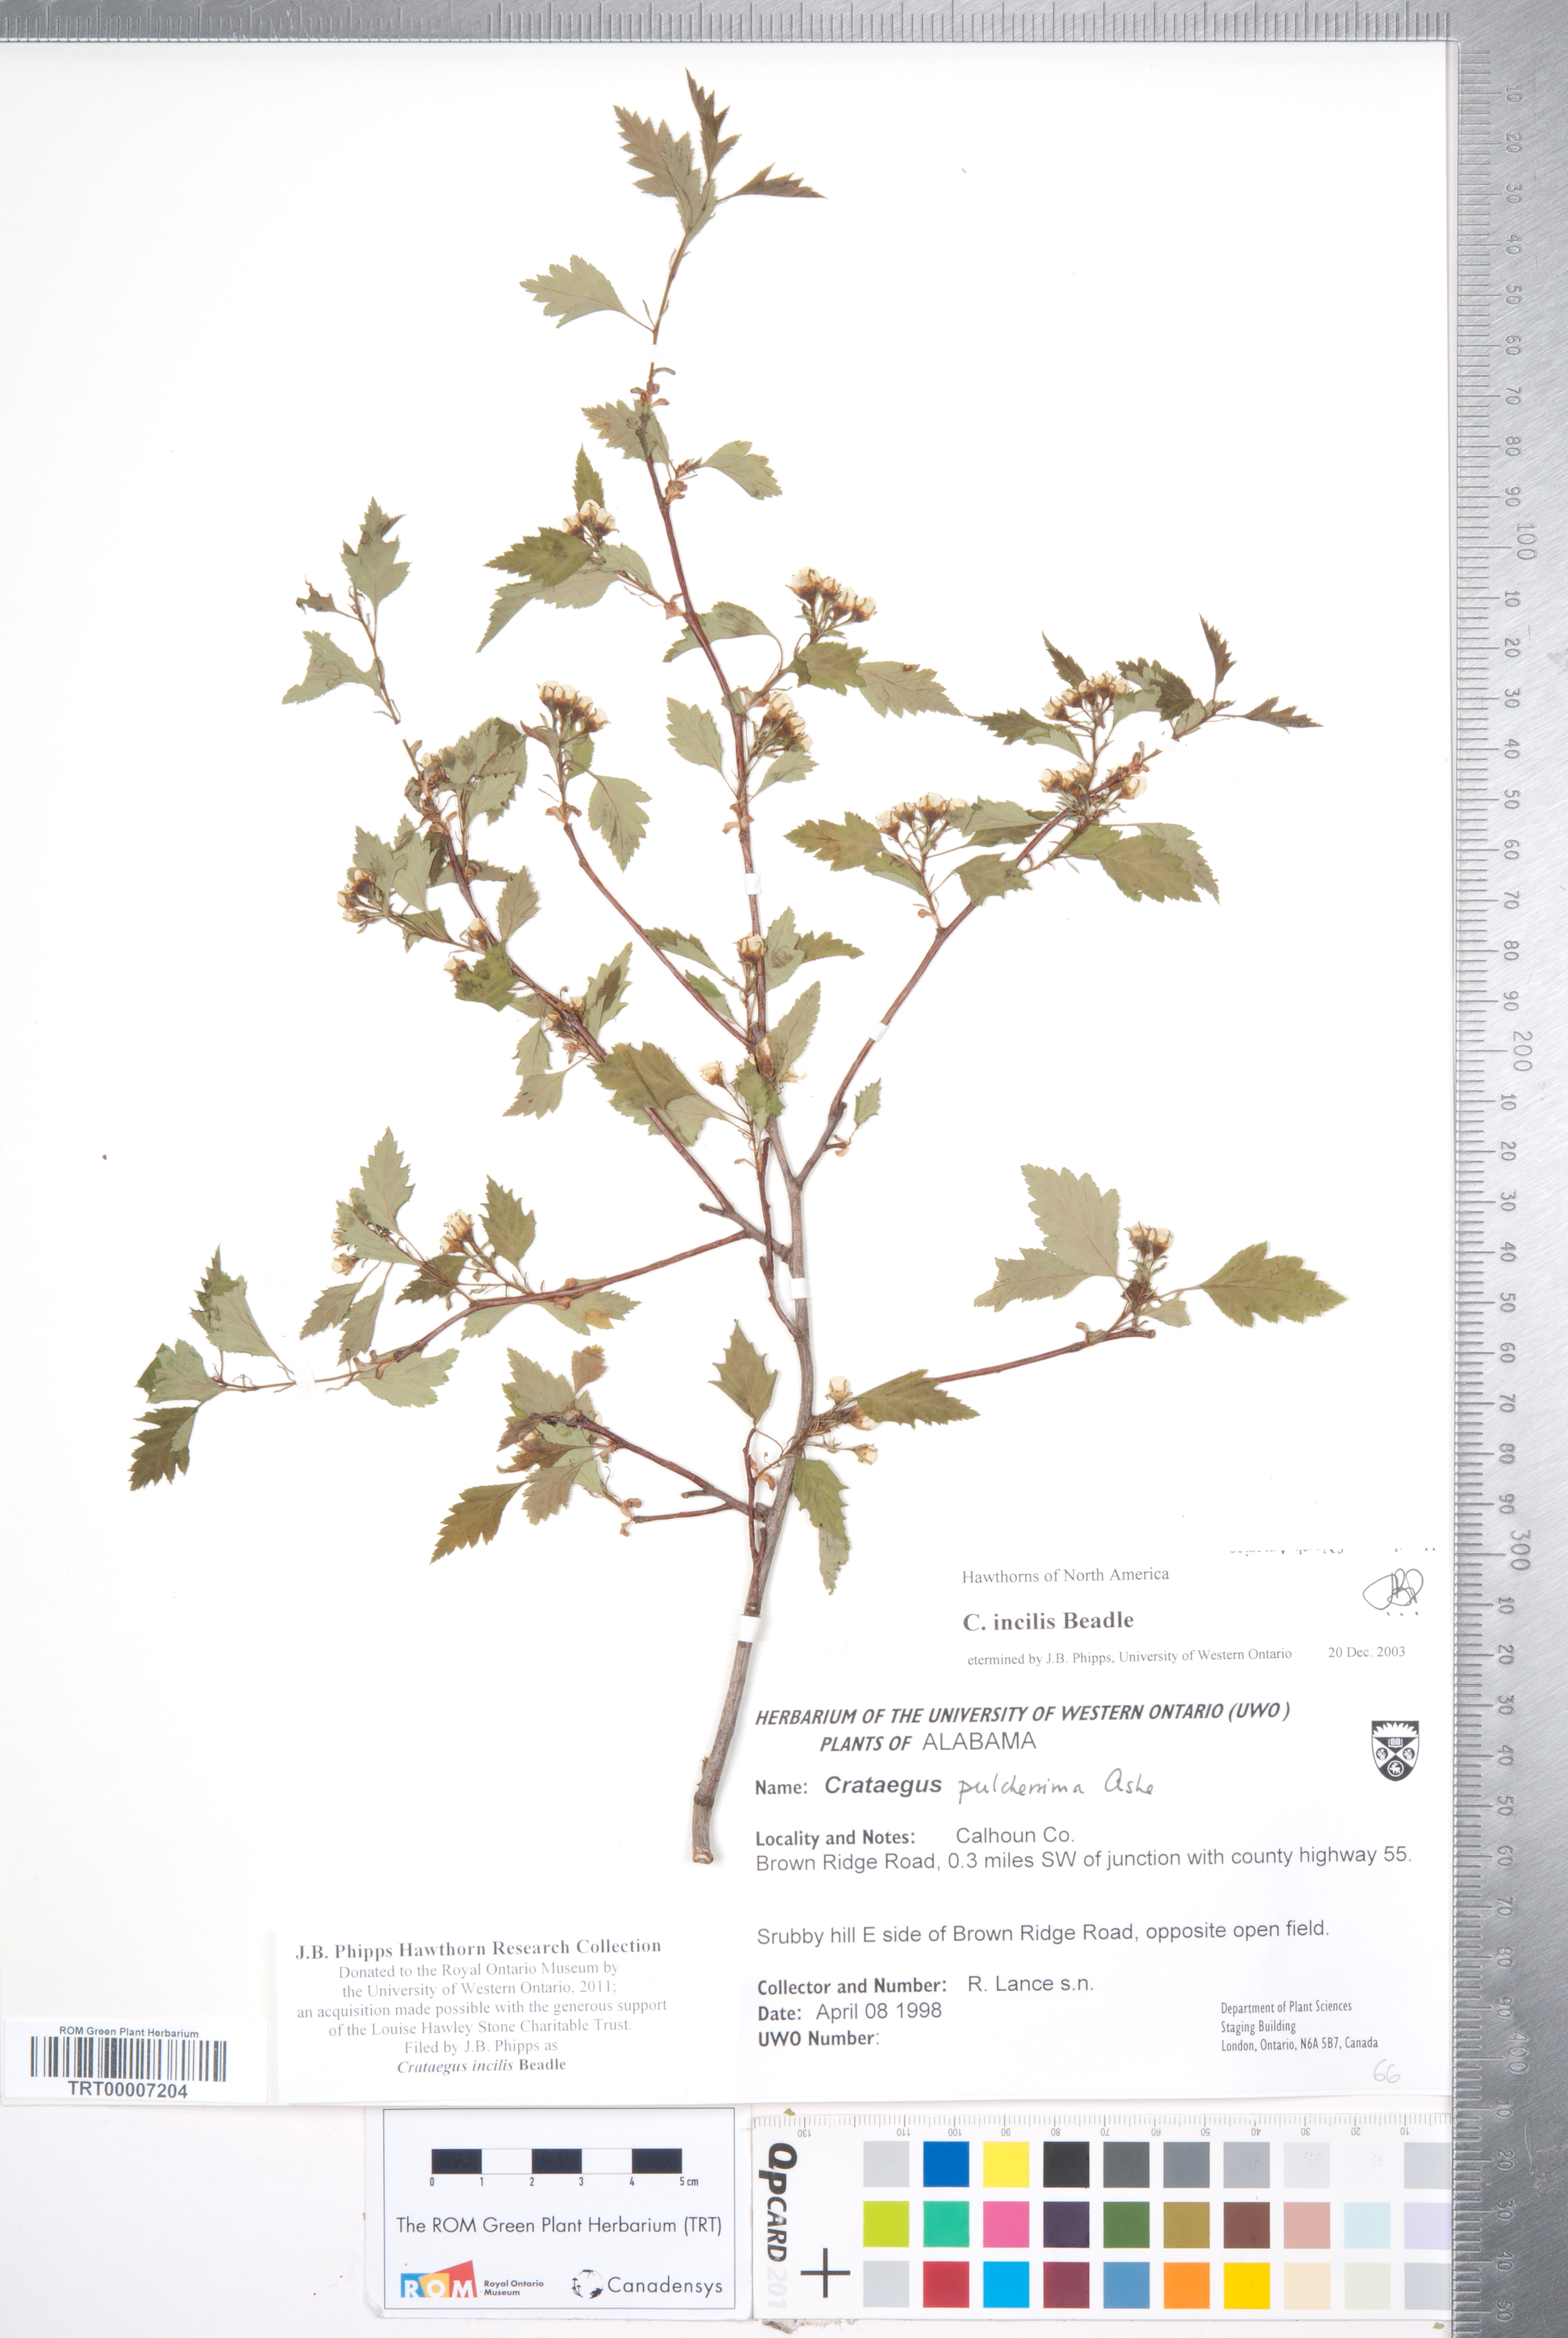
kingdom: Plantae
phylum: Tracheophyta
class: Magnoliopsida
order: Rosales
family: Rosaceae
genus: Crataegus
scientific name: Crataegus pulcherrima
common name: Beautiful hawthorn
